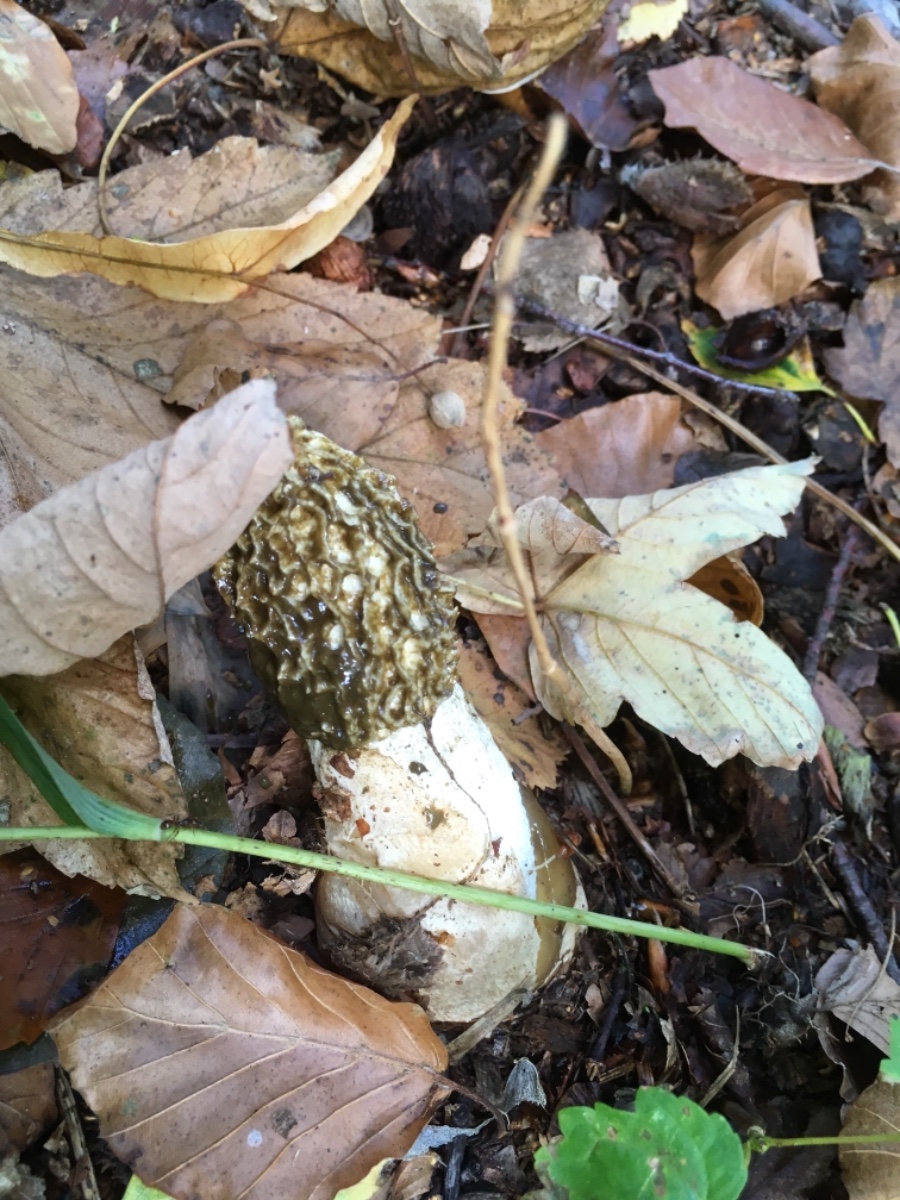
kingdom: Fungi
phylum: Basidiomycota
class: Agaricomycetes
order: Phallales
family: Phallaceae
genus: Phallus
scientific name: Phallus impudicus
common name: almindelig stinksvamp
